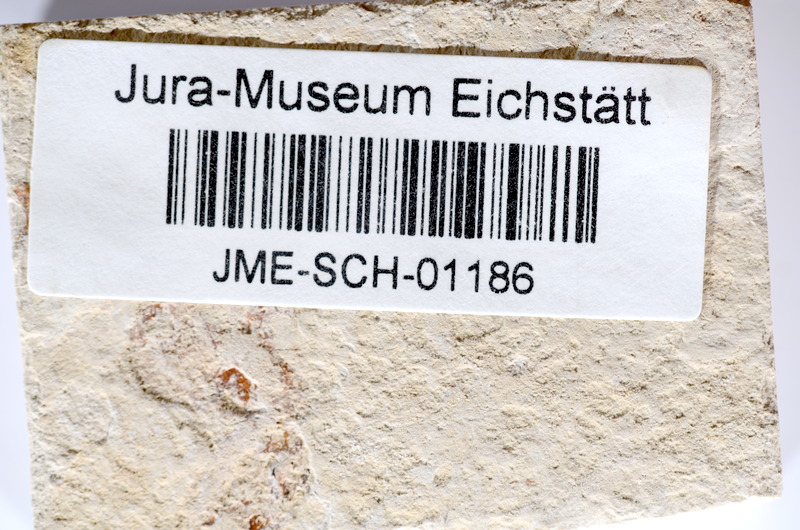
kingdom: Animalia
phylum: Chordata
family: Ascalaboidae
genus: Tharsis
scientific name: Tharsis dubius
